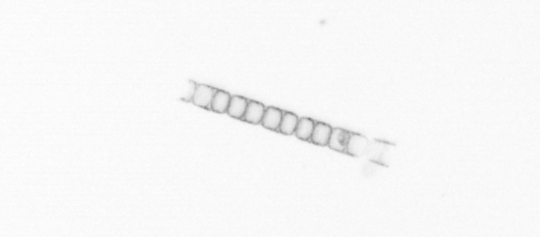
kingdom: Chromista
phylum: Ochrophyta
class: Bacillariophyceae
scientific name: Bacillariophyceae
